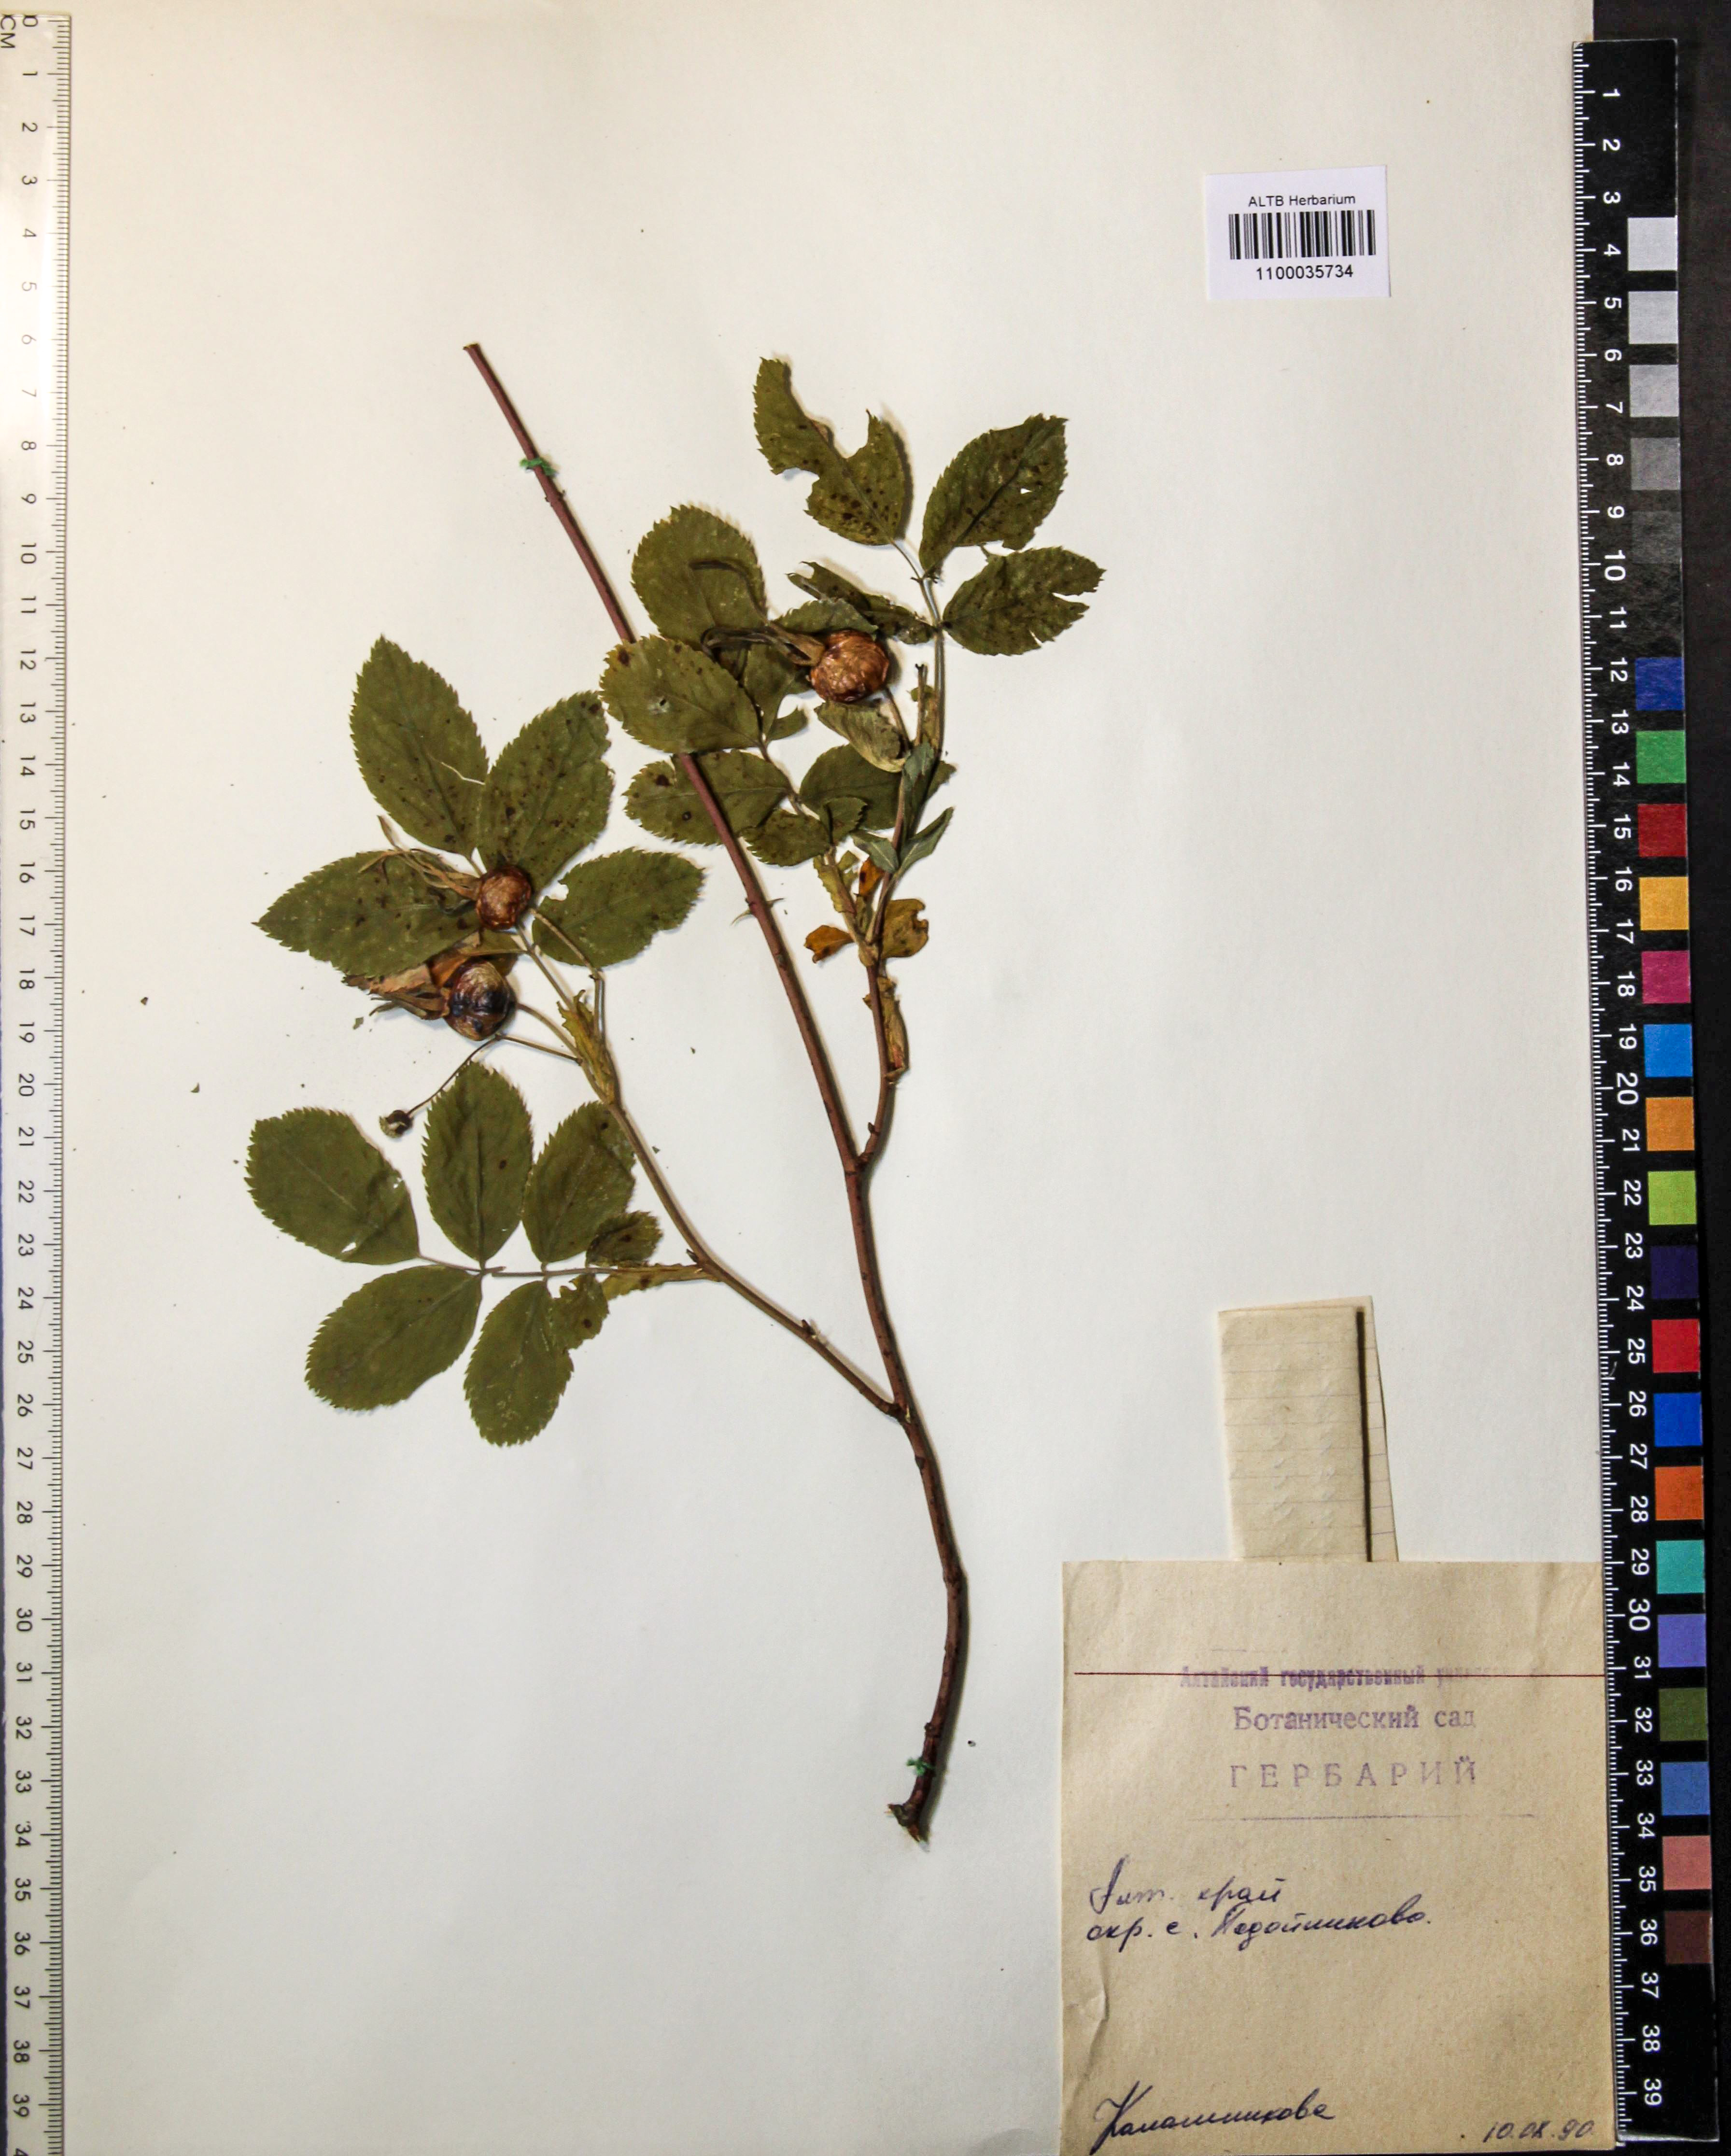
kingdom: Plantae
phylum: Tracheophyta
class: Magnoliopsida
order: Rosales
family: Rosaceae
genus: Rosa
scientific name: Rosa majalis
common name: Cinnamon rose
